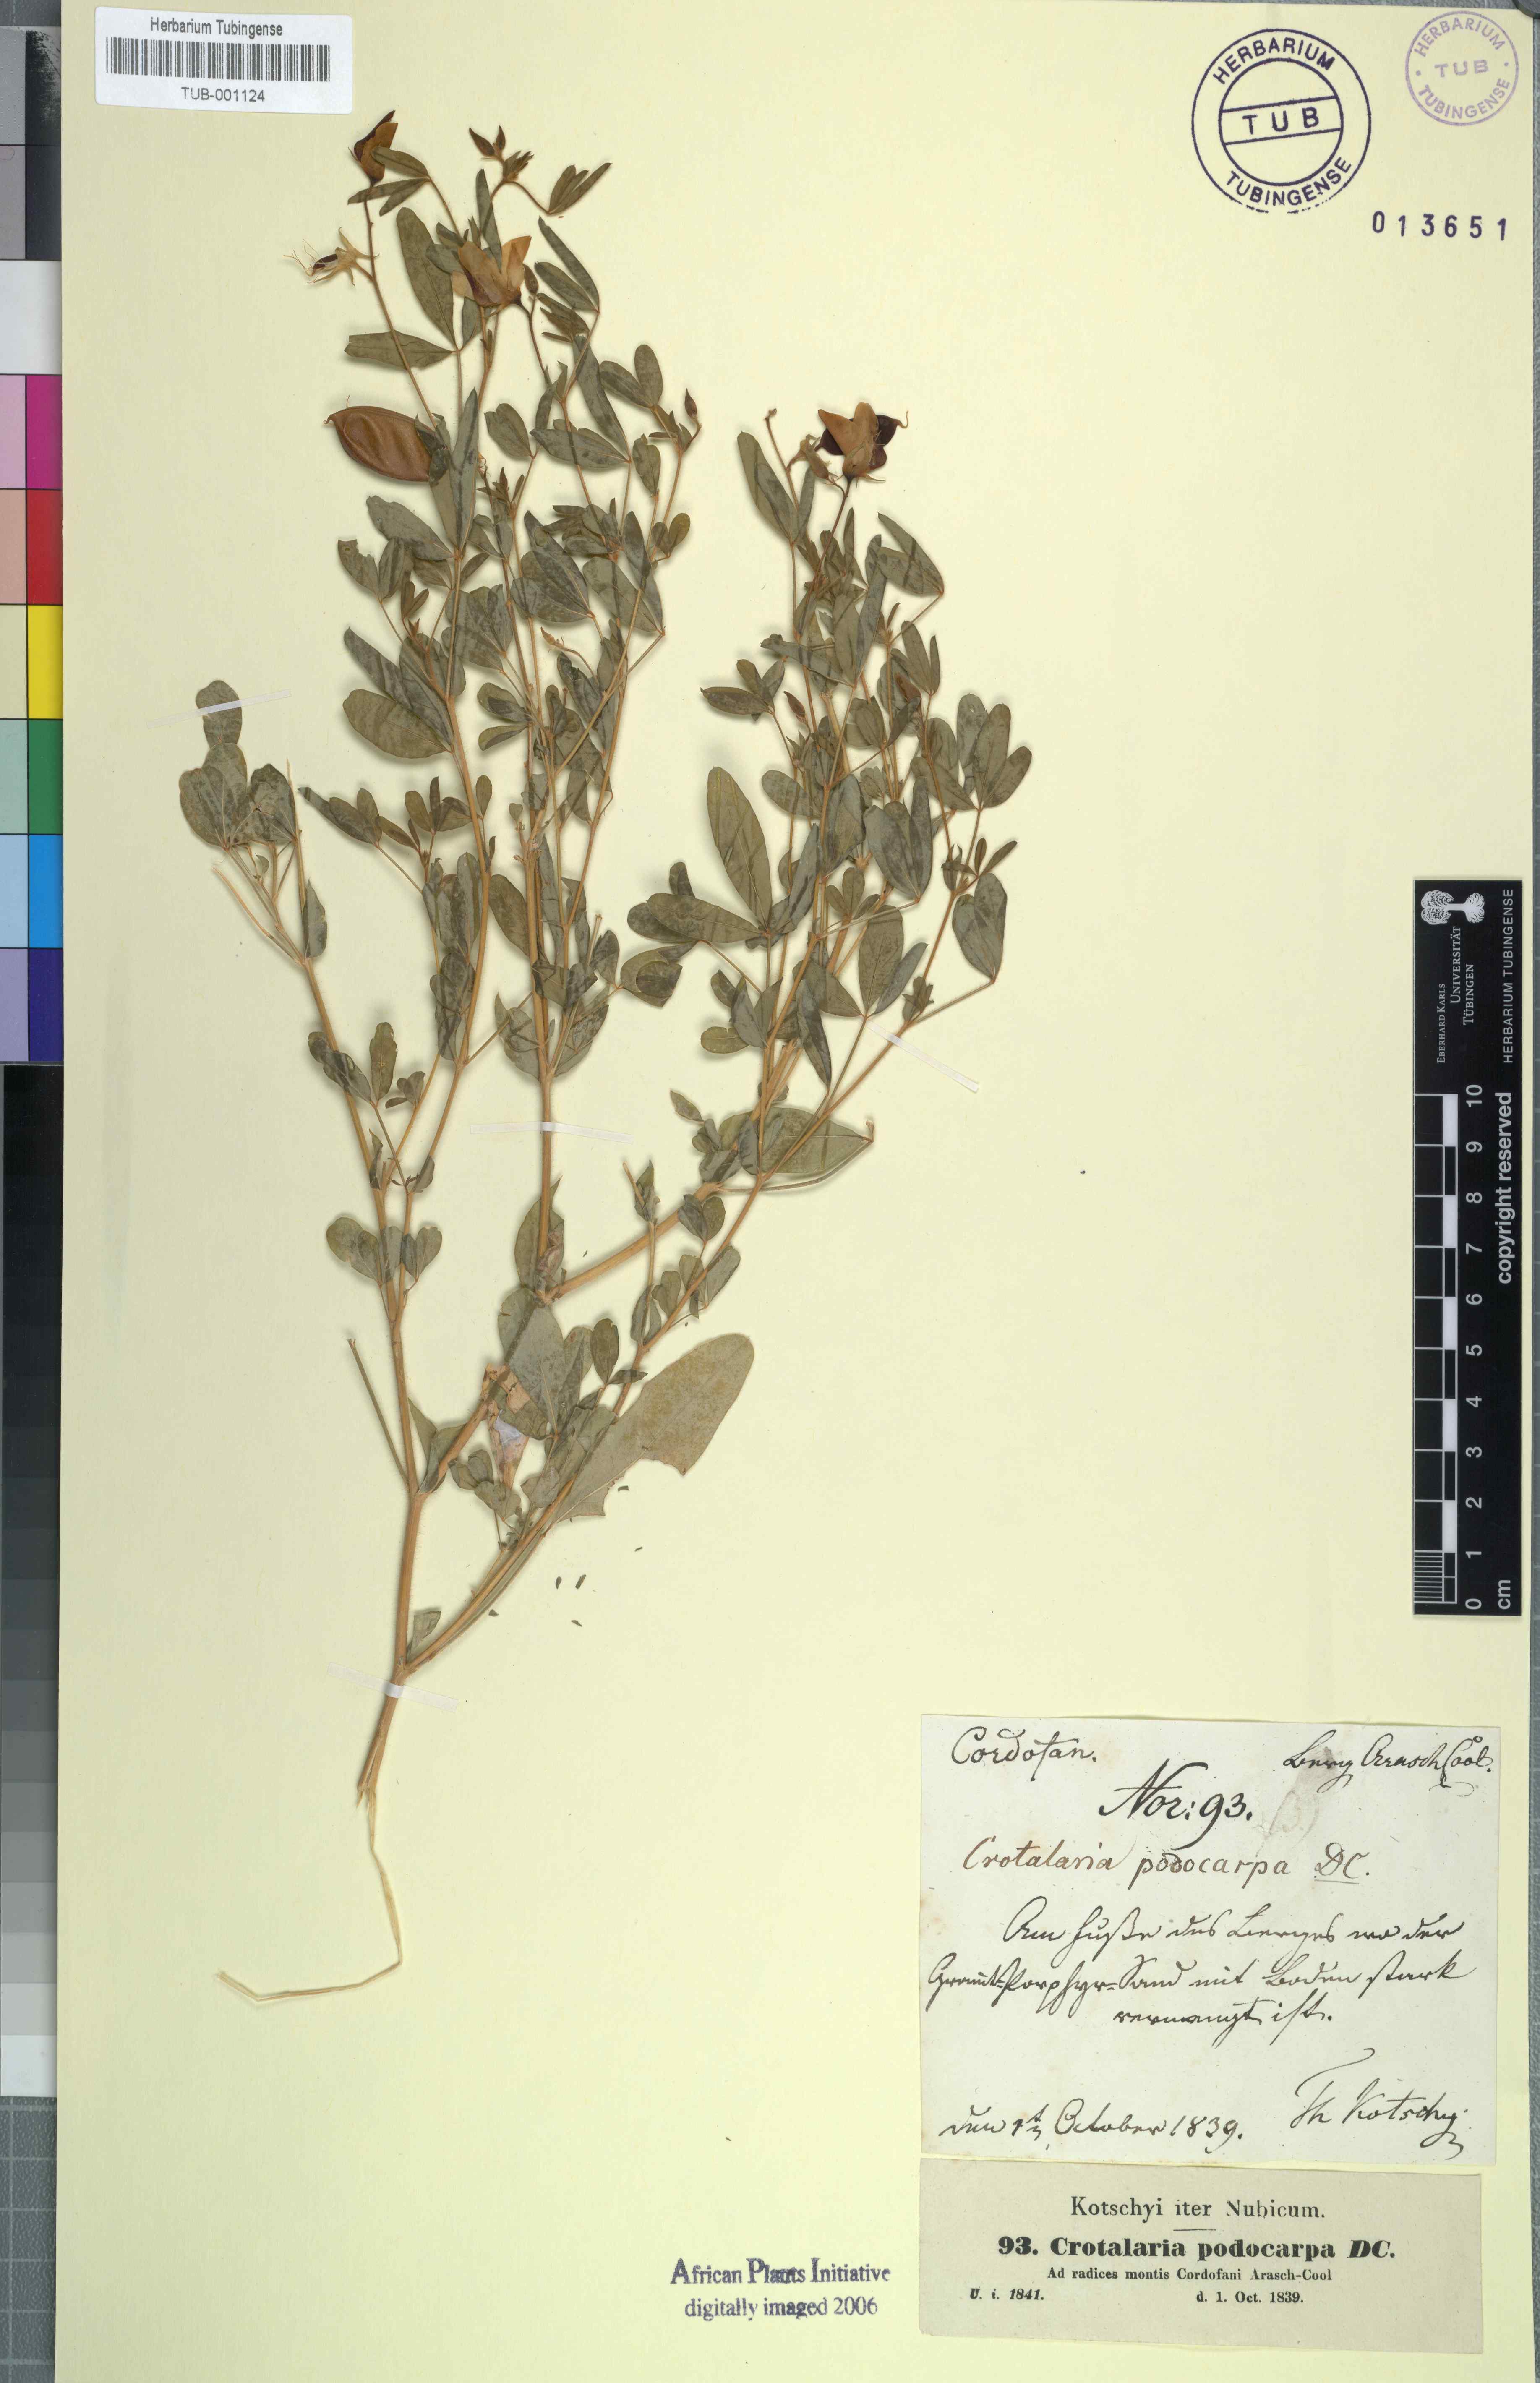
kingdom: Plantae
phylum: Tracheophyta
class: Magnoliopsida
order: Fabales
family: Fabaceae
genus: Crotalaria
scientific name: Crotalaria podocarpa
